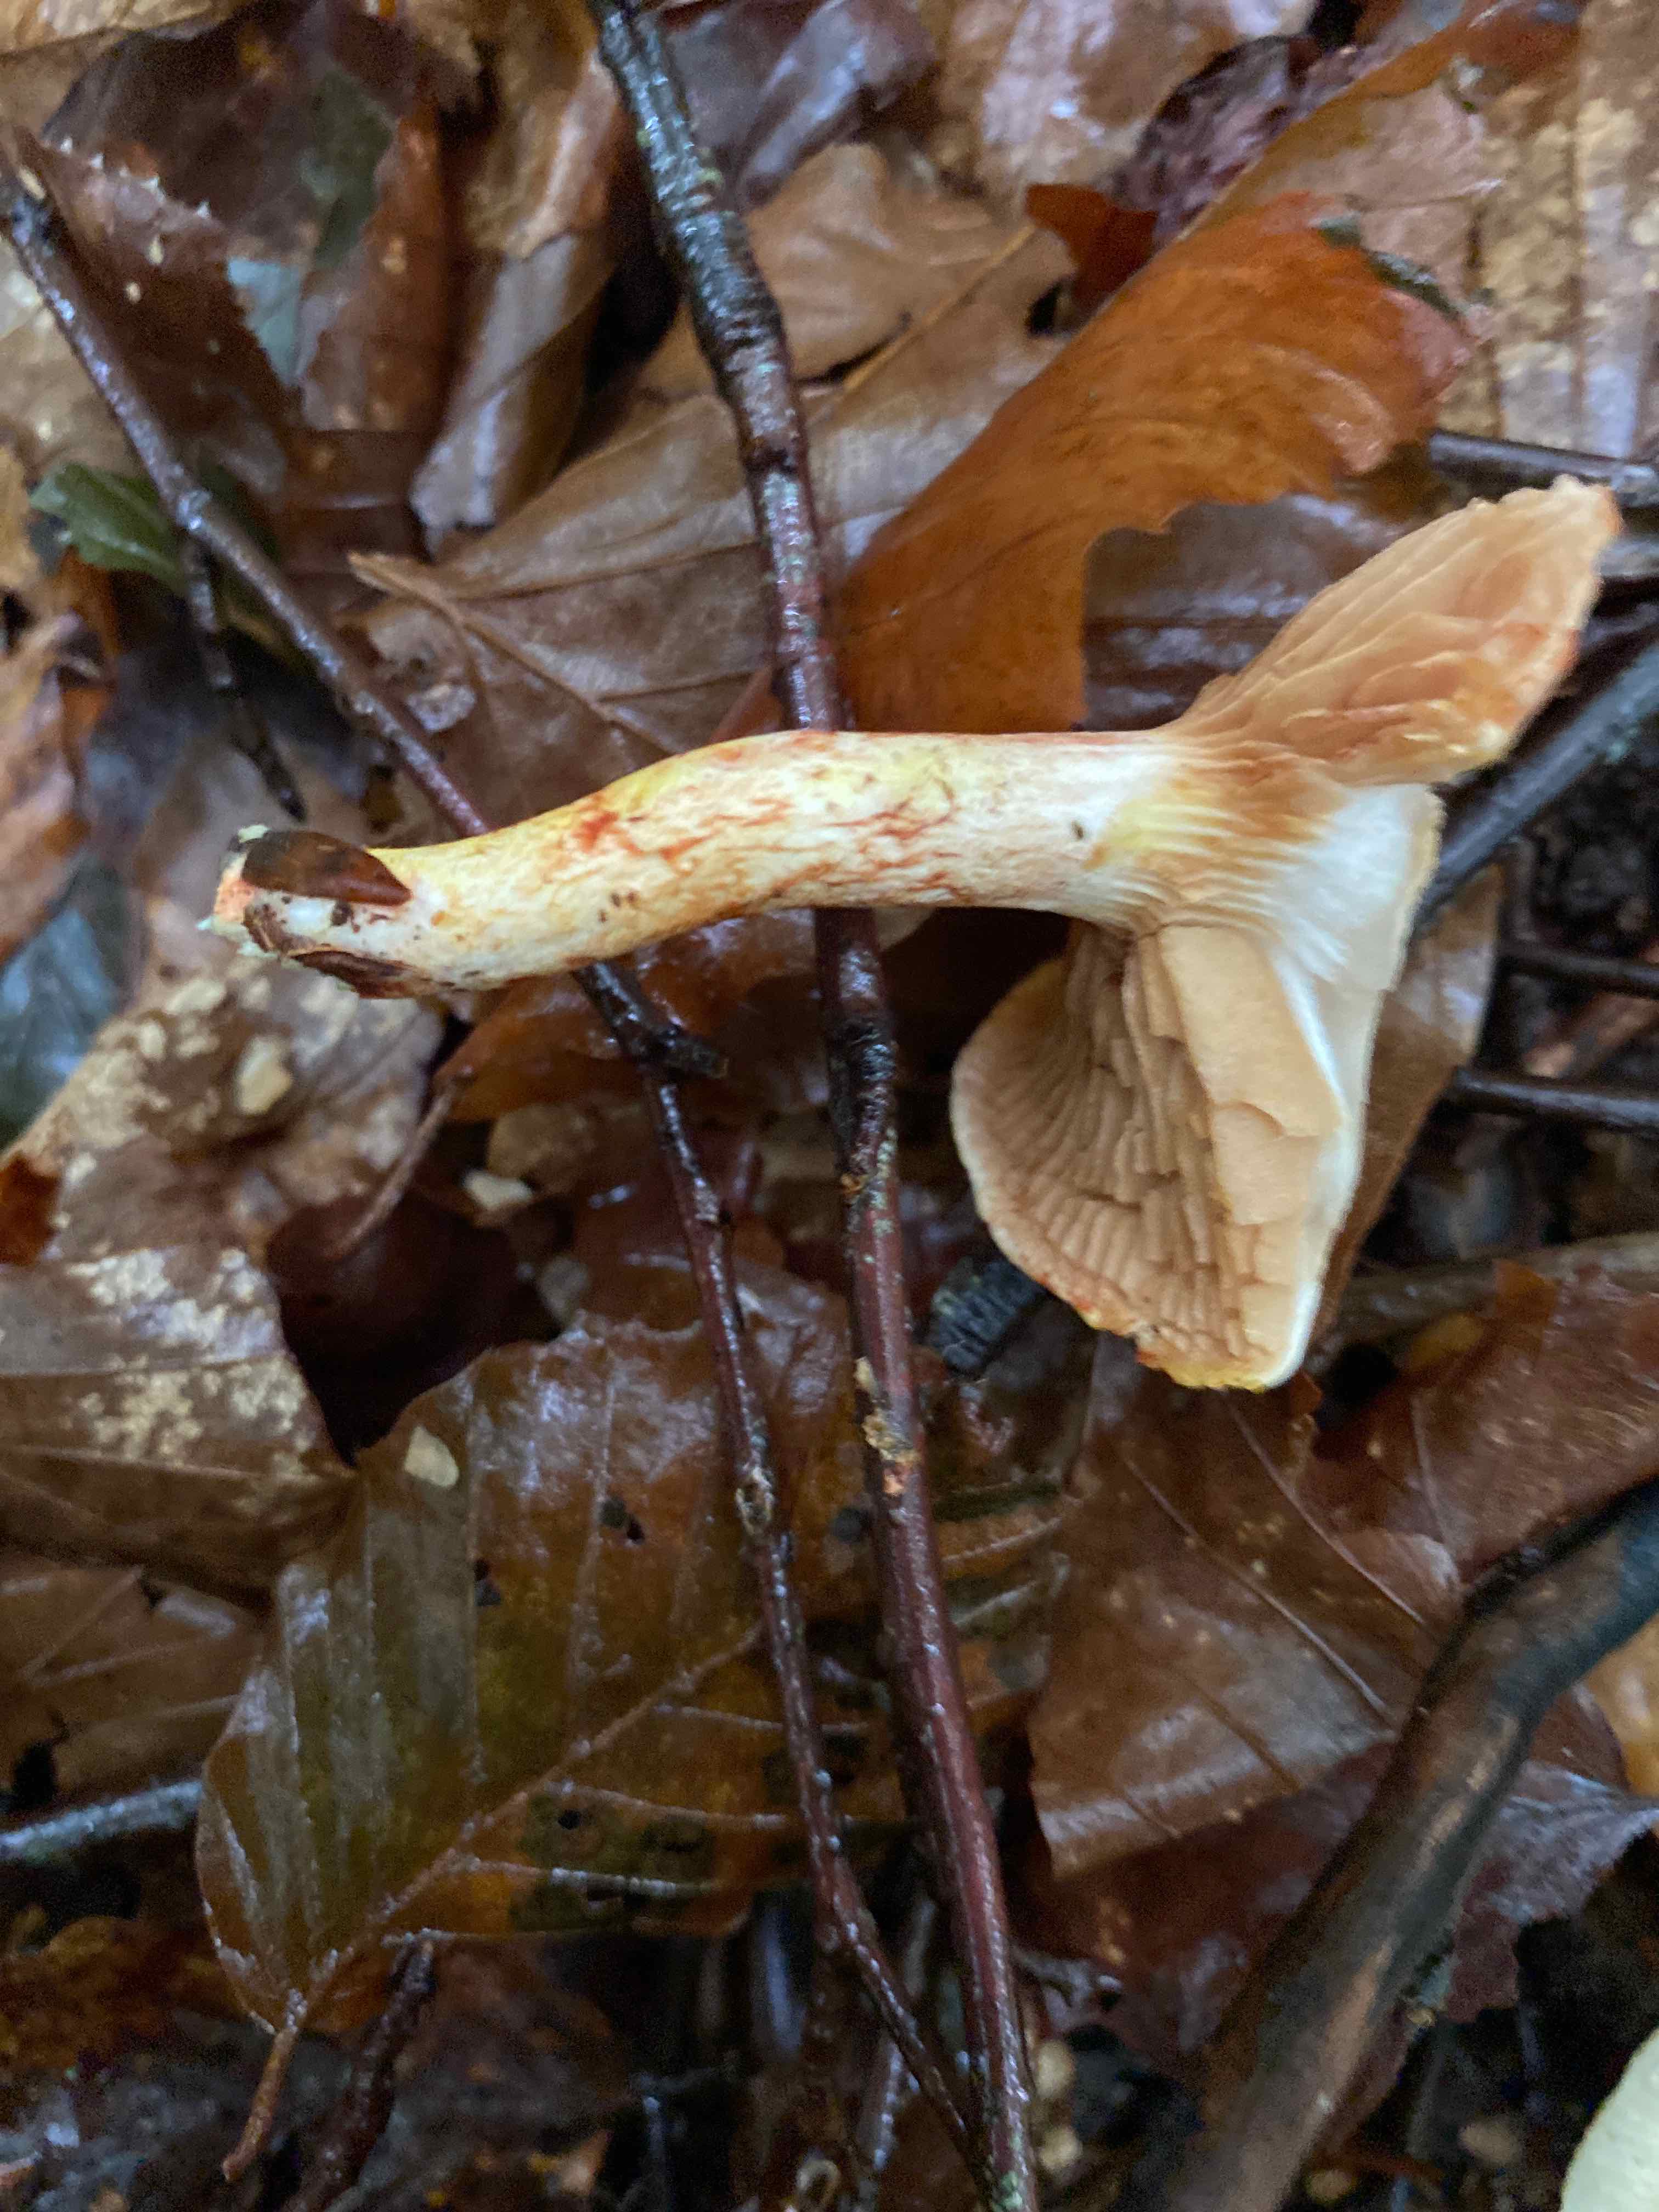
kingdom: Fungi
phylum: Basidiomycota
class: Agaricomycetes
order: Agaricales
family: Cortinariaceae
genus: Cortinarius
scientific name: Cortinarius bolaris
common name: cinnoberskællet slørhat
